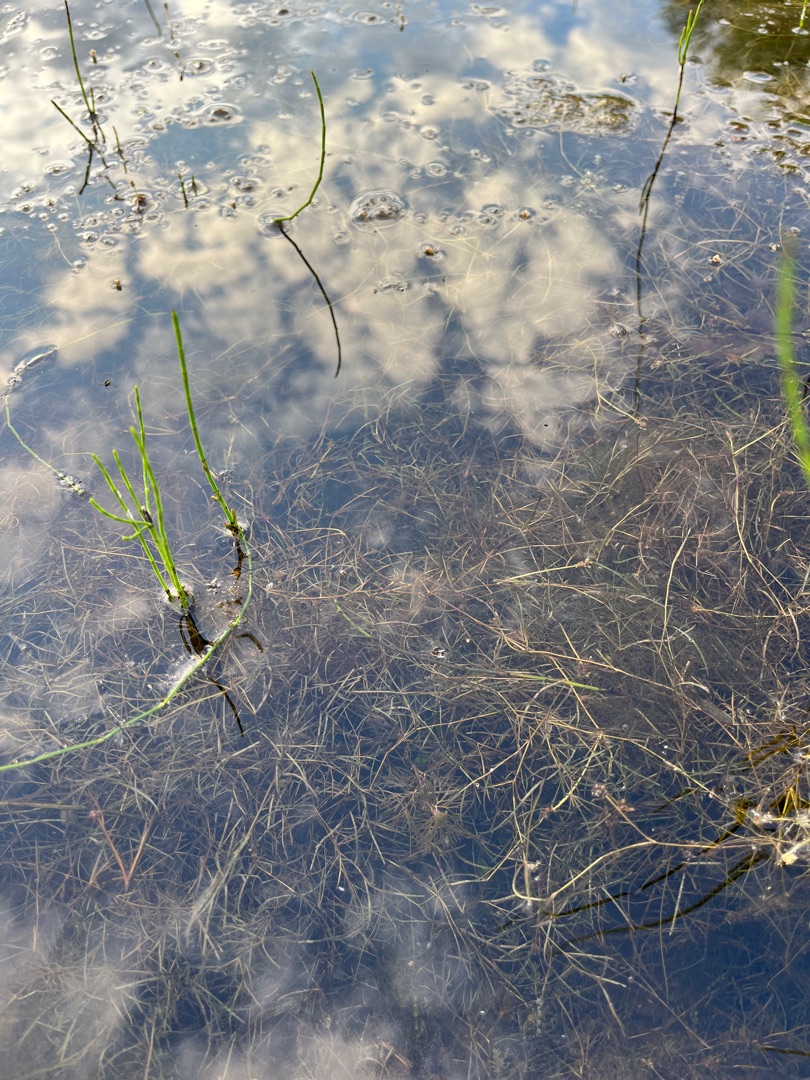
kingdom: Plantae
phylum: Tracheophyta
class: Liliopsida
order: Alismatales
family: Potamogetonaceae
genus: Potamogeton
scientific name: Potamogeton berchtoldii
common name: Liden vandaks
